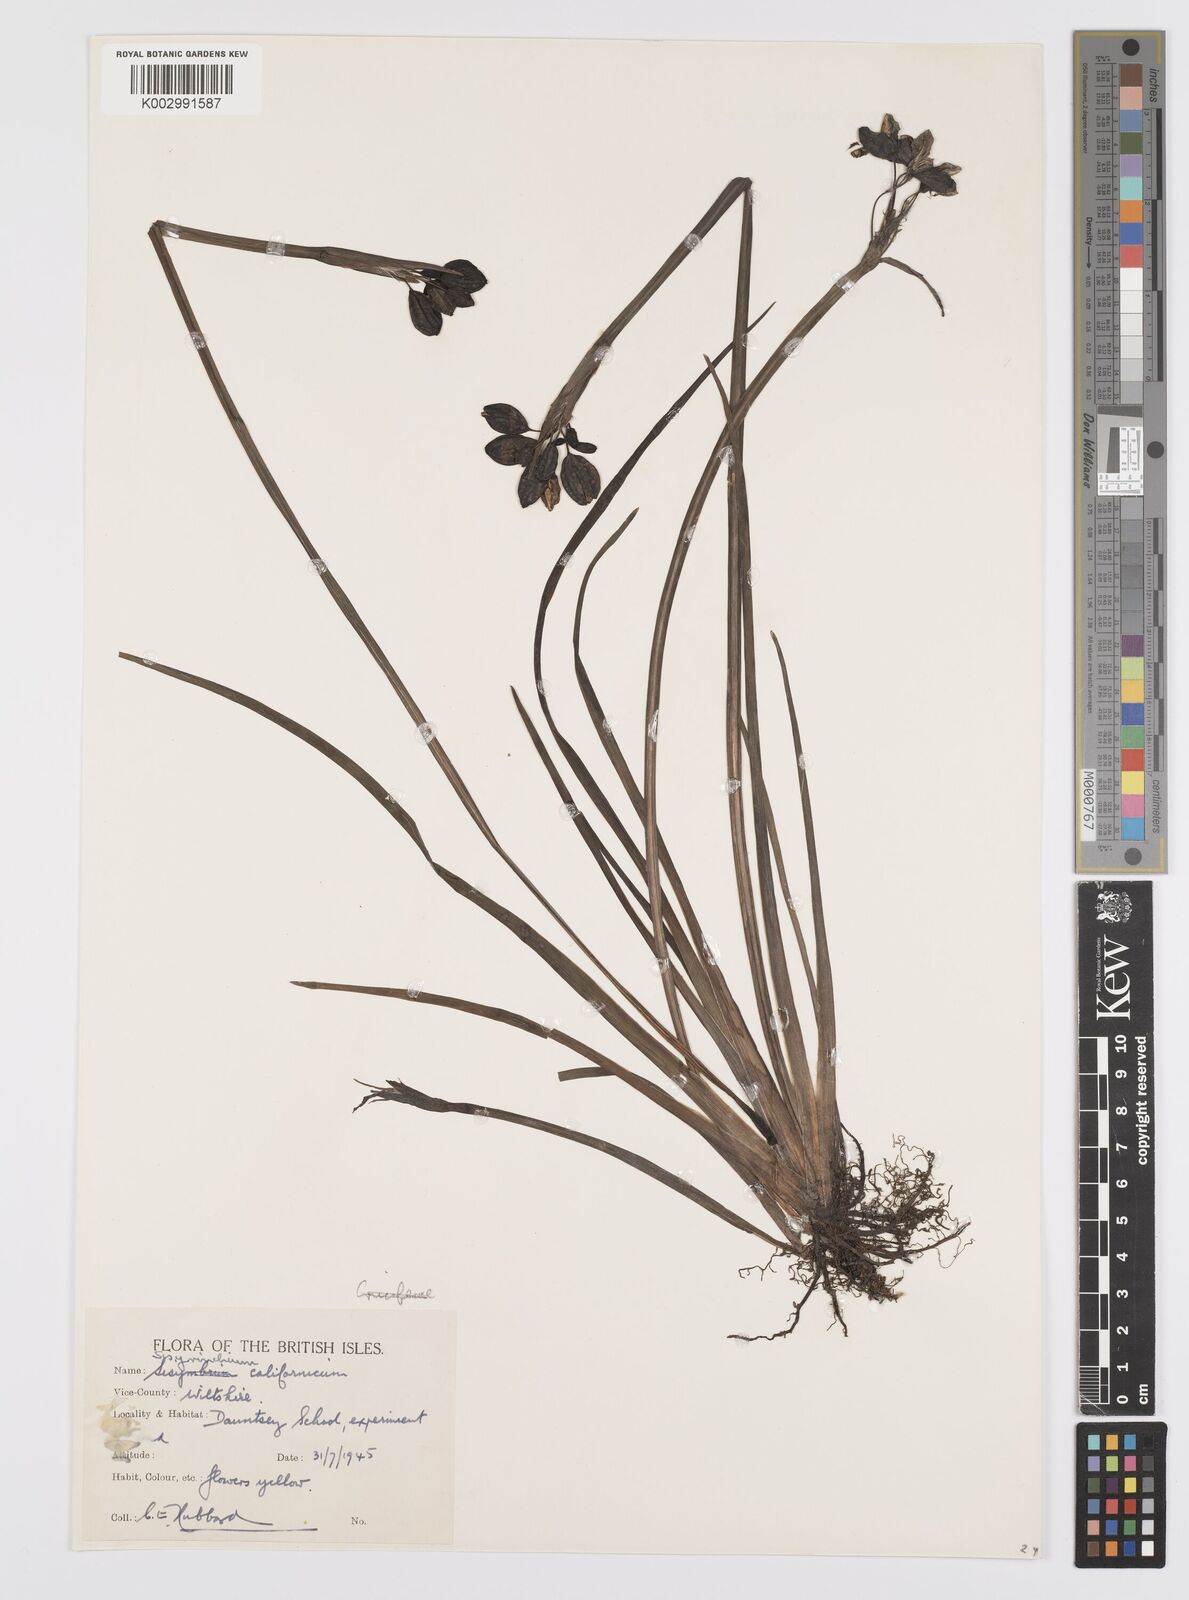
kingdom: Plantae
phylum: Tracheophyta
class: Liliopsida
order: Asparagales
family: Iridaceae
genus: Sisyrinchium
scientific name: Sisyrinchium californicum
